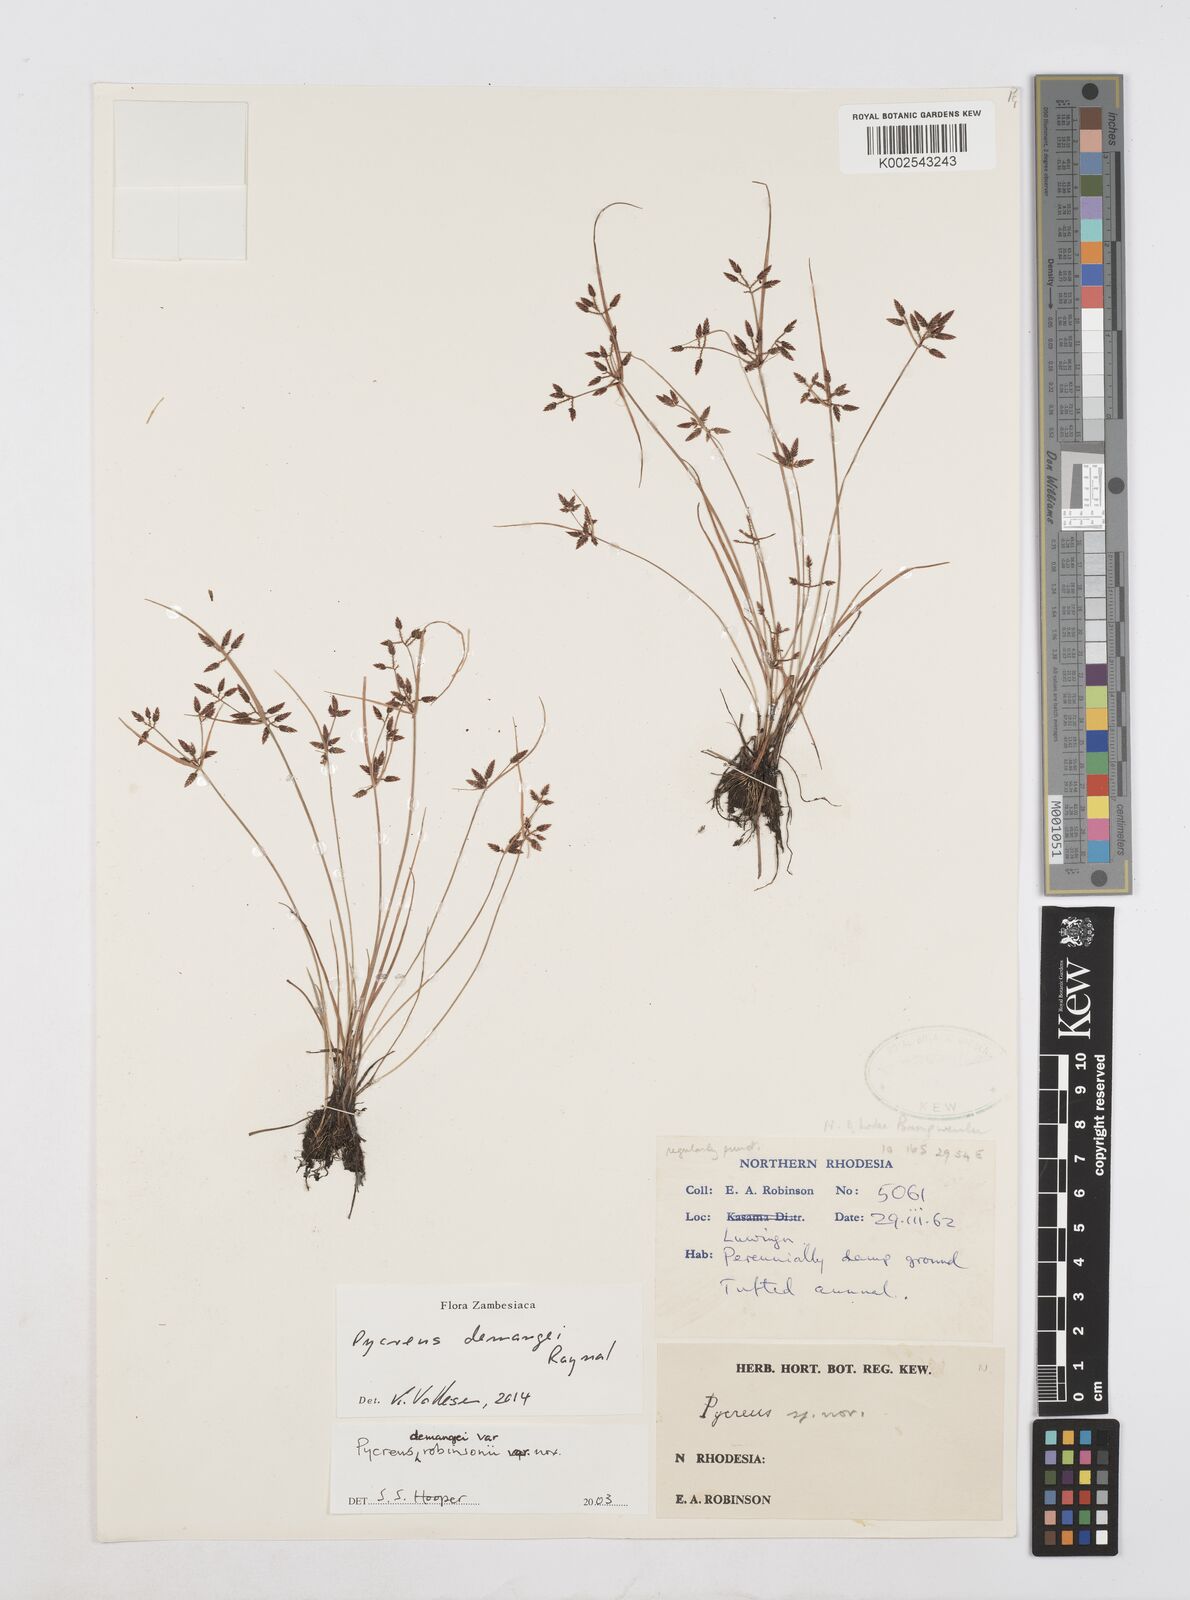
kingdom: Plantae
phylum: Tracheophyta
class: Liliopsida
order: Poales
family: Cyperaceae
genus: Cyperus
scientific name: Cyperus demangei
